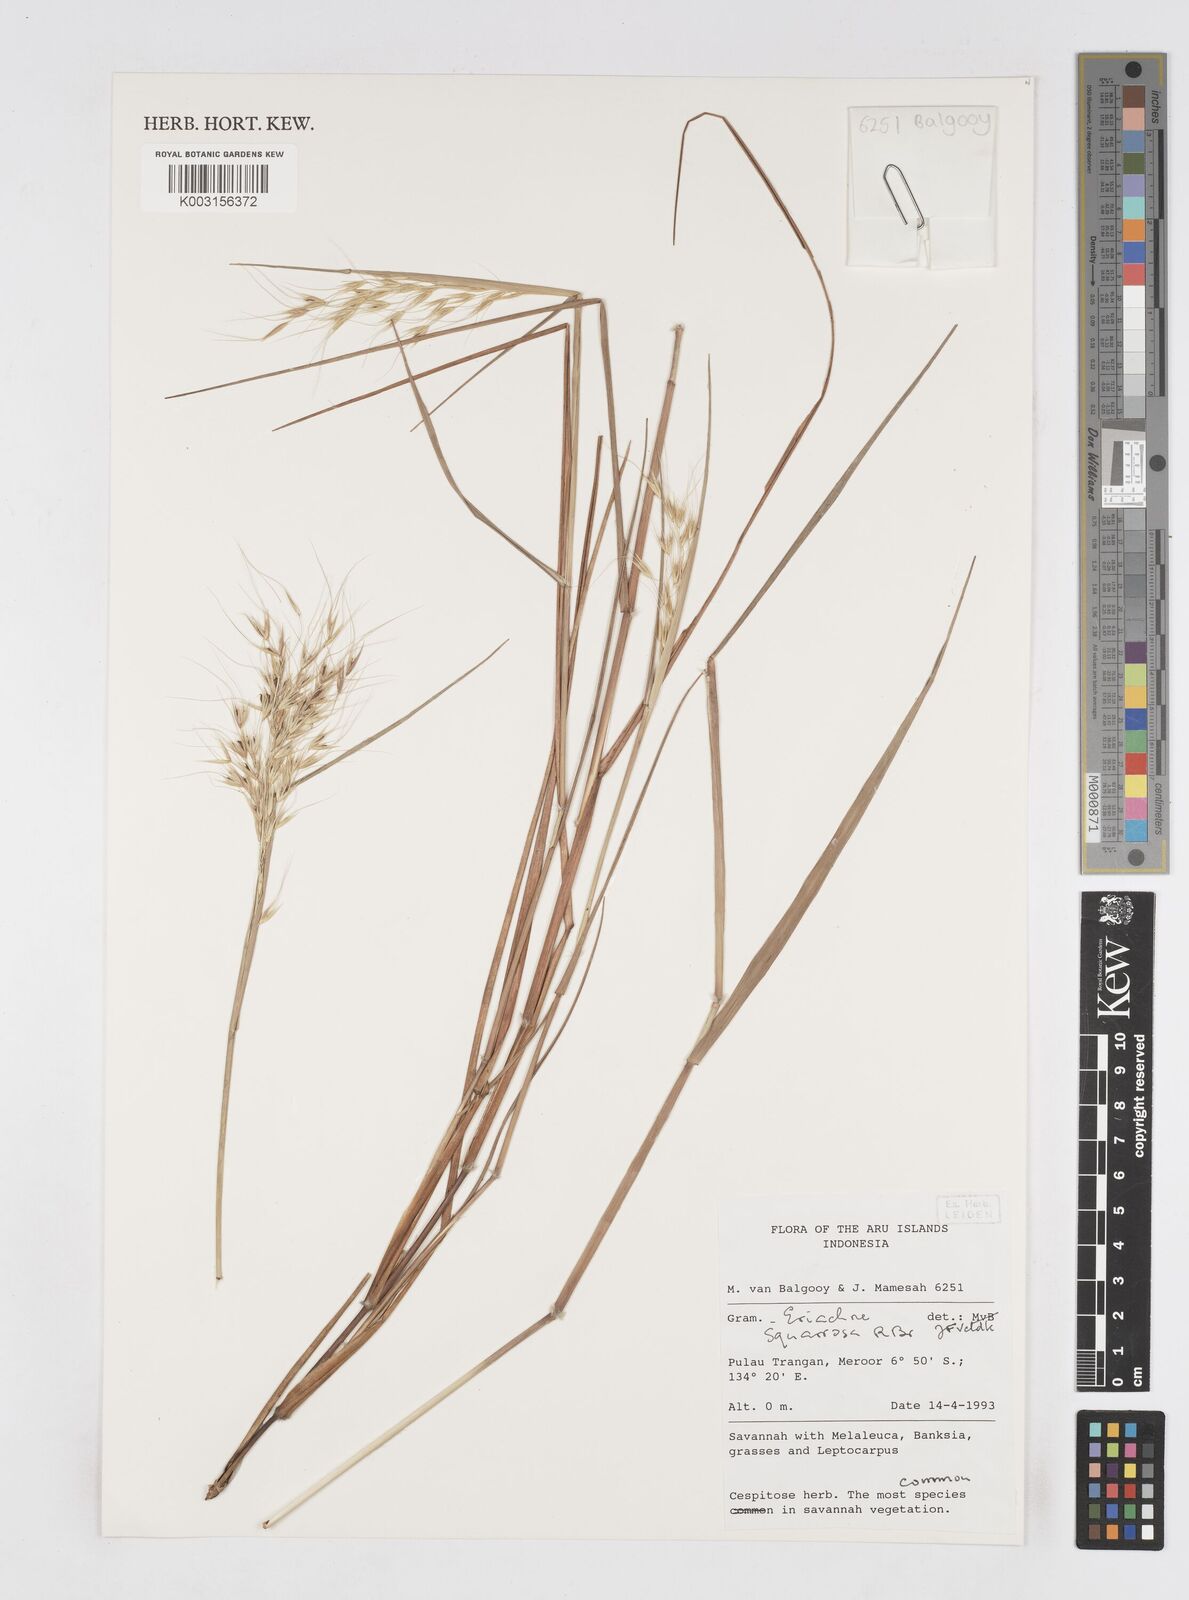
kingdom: Plantae
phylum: Tracheophyta
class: Liliopsida
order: Poales
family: Poaceae
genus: Eriachne
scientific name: Eriachne squarrosa
